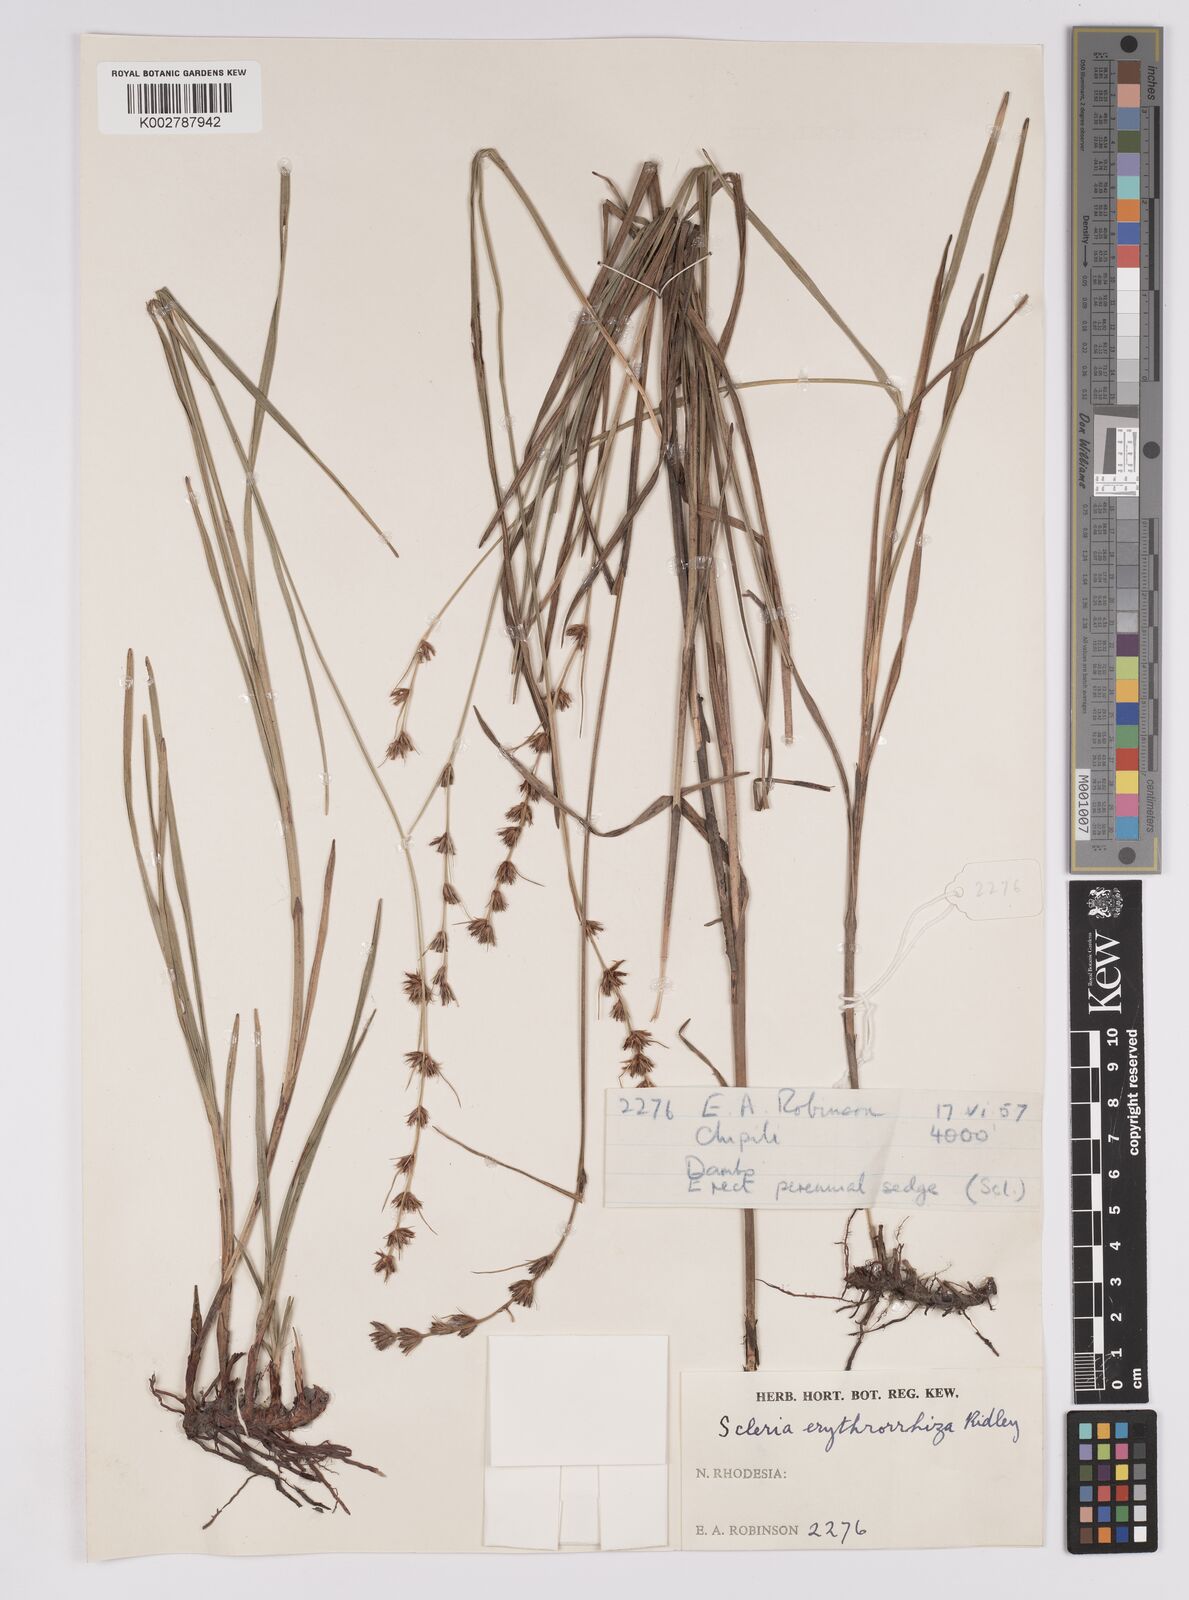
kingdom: Plantae
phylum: Tracheophyta
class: Liliopsida
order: Poales
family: Cyperaceae
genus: Scleria
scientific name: Scleria erythrorrhiza
